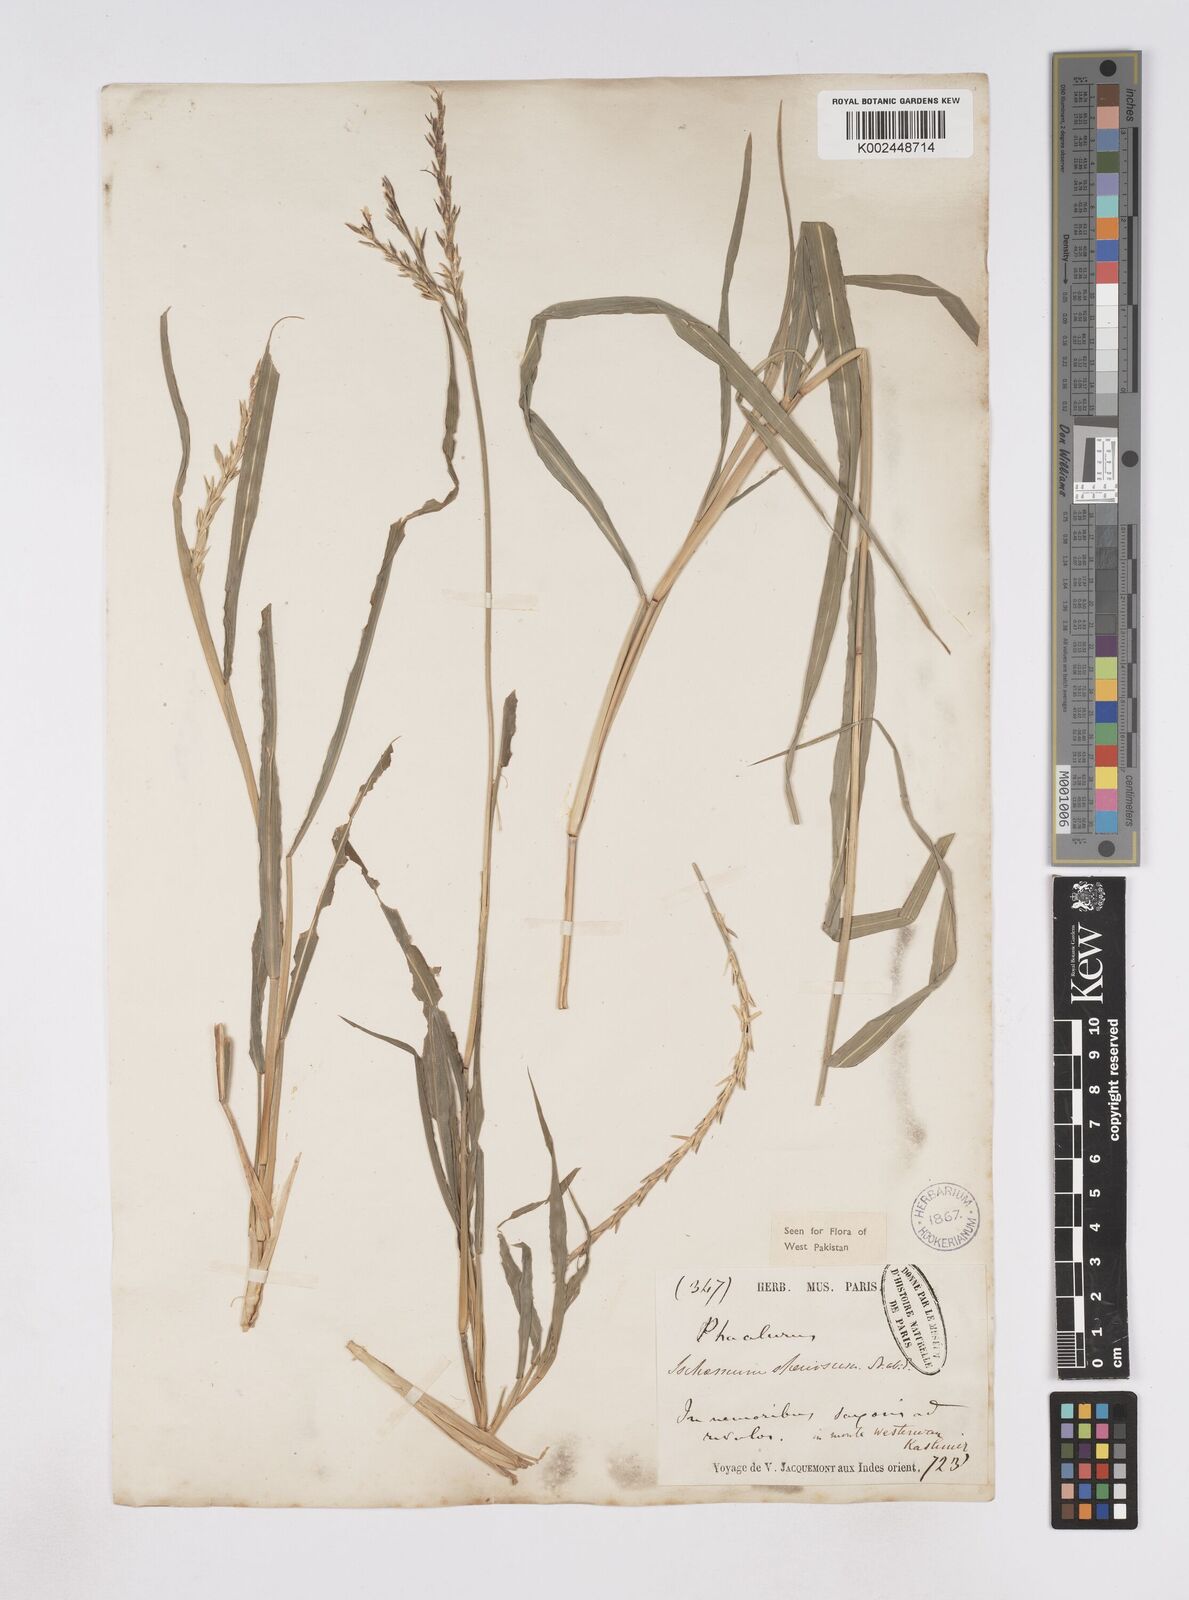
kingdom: Plantae
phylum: Tracheophyta
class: Liliopsida
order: Poales
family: Poaceae
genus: Phacelurus
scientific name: Phacelurus speciosus
